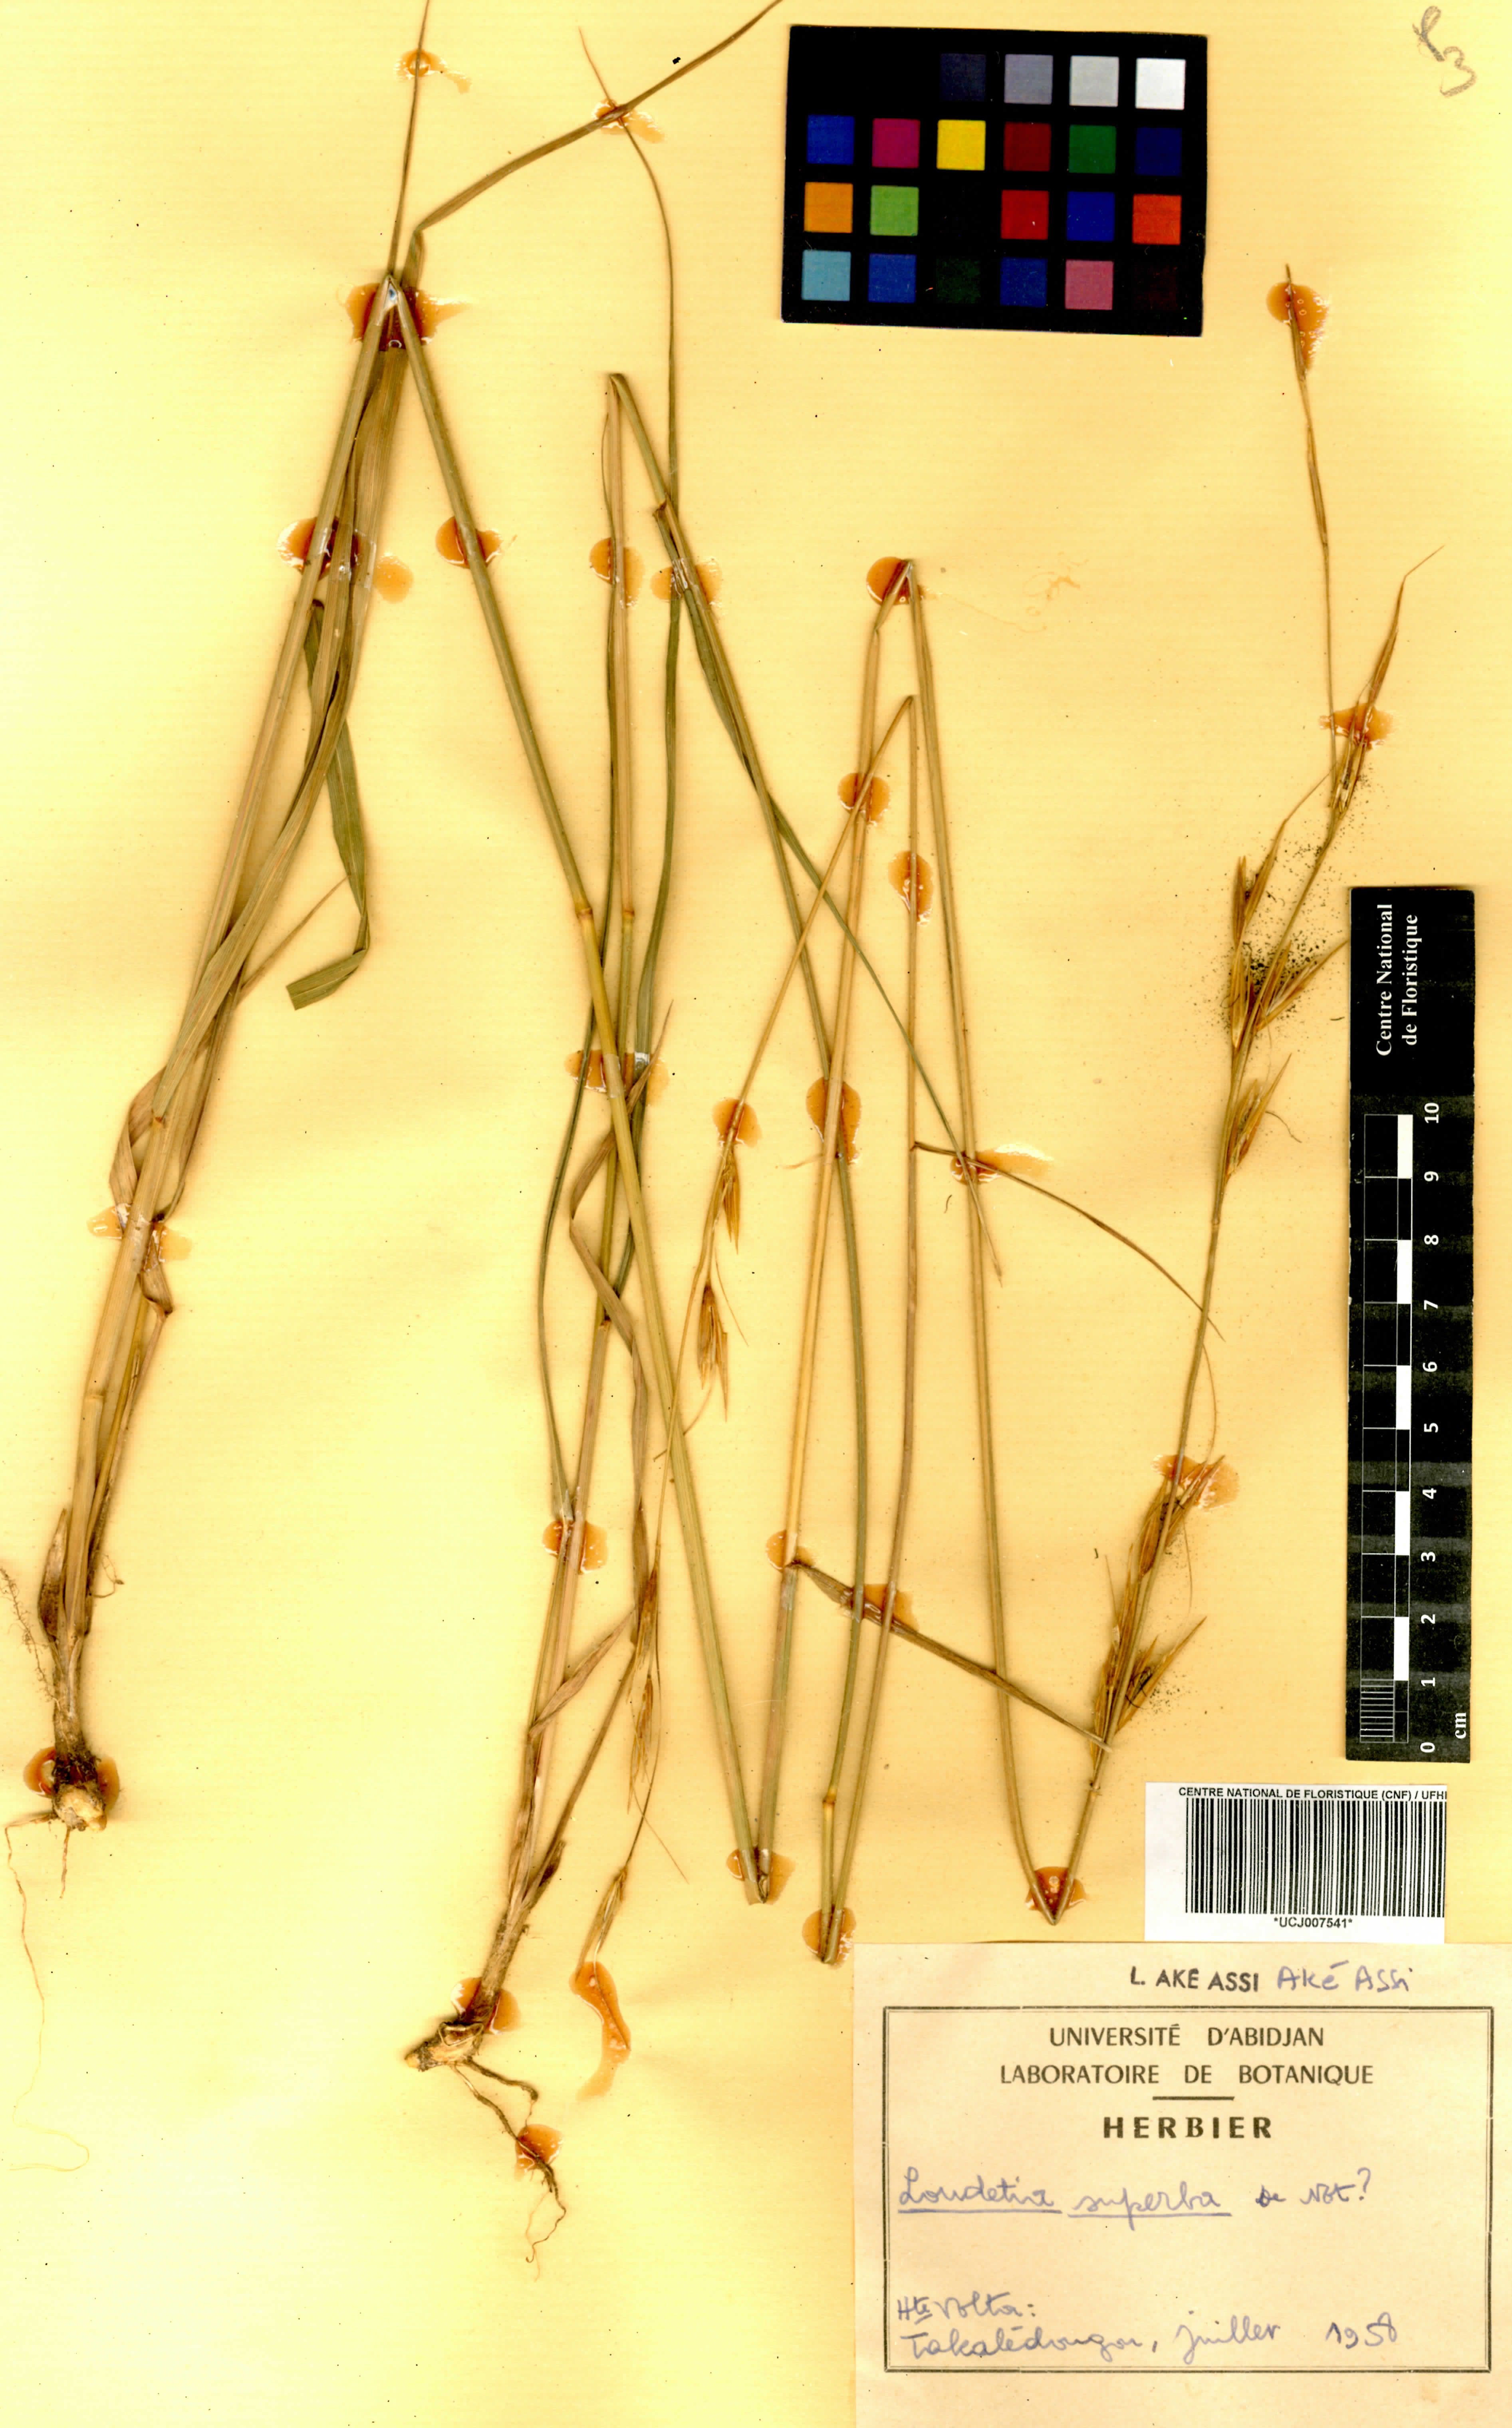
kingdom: Plantae
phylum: Tracheophyta
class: Liliopsida
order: Poales
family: Poaceae
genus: Tristachya
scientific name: Tristachya superba
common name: Giant trident grass
